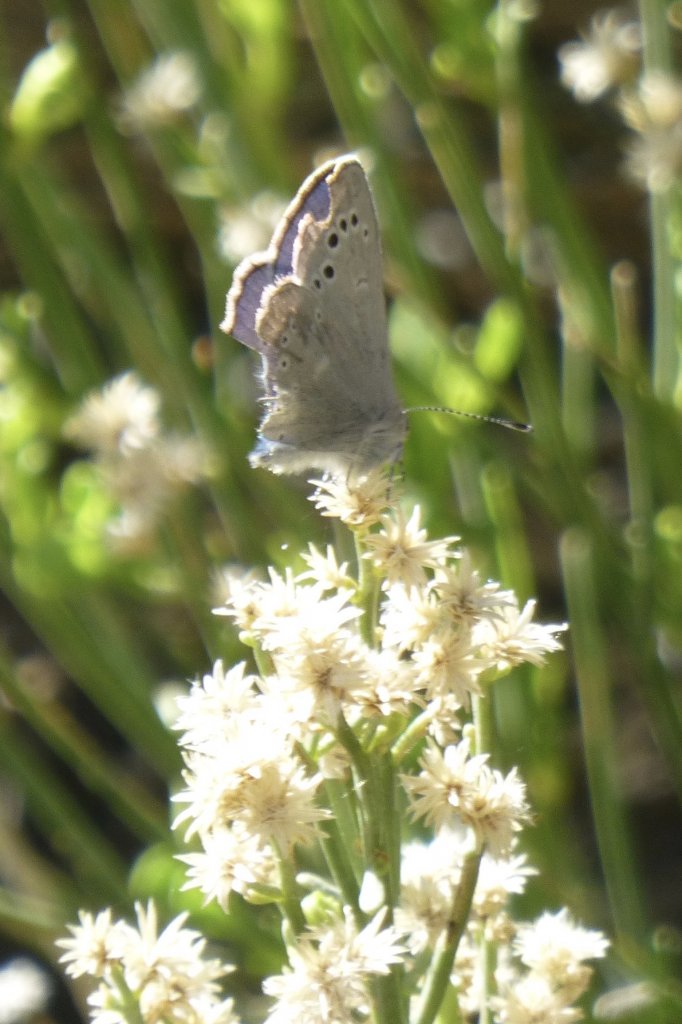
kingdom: Animalia
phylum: Arthropoda
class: Insecta
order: Lepidoptera
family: Lycaenidae
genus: Glaucopsyche
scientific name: Glaucopsyche lygdamus
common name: Silvery Blue
